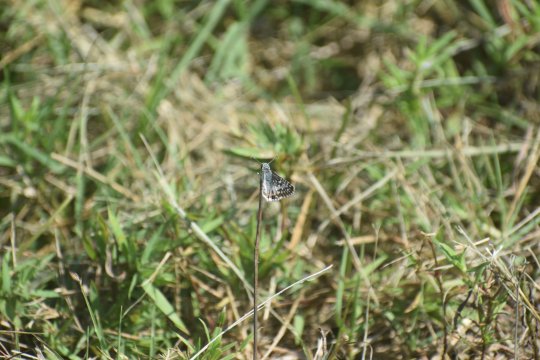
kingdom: Animalia
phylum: Arthropoda
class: Insecta
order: Lepidoptera
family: Hesperiidae
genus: Burnsius
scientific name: Burnsius
